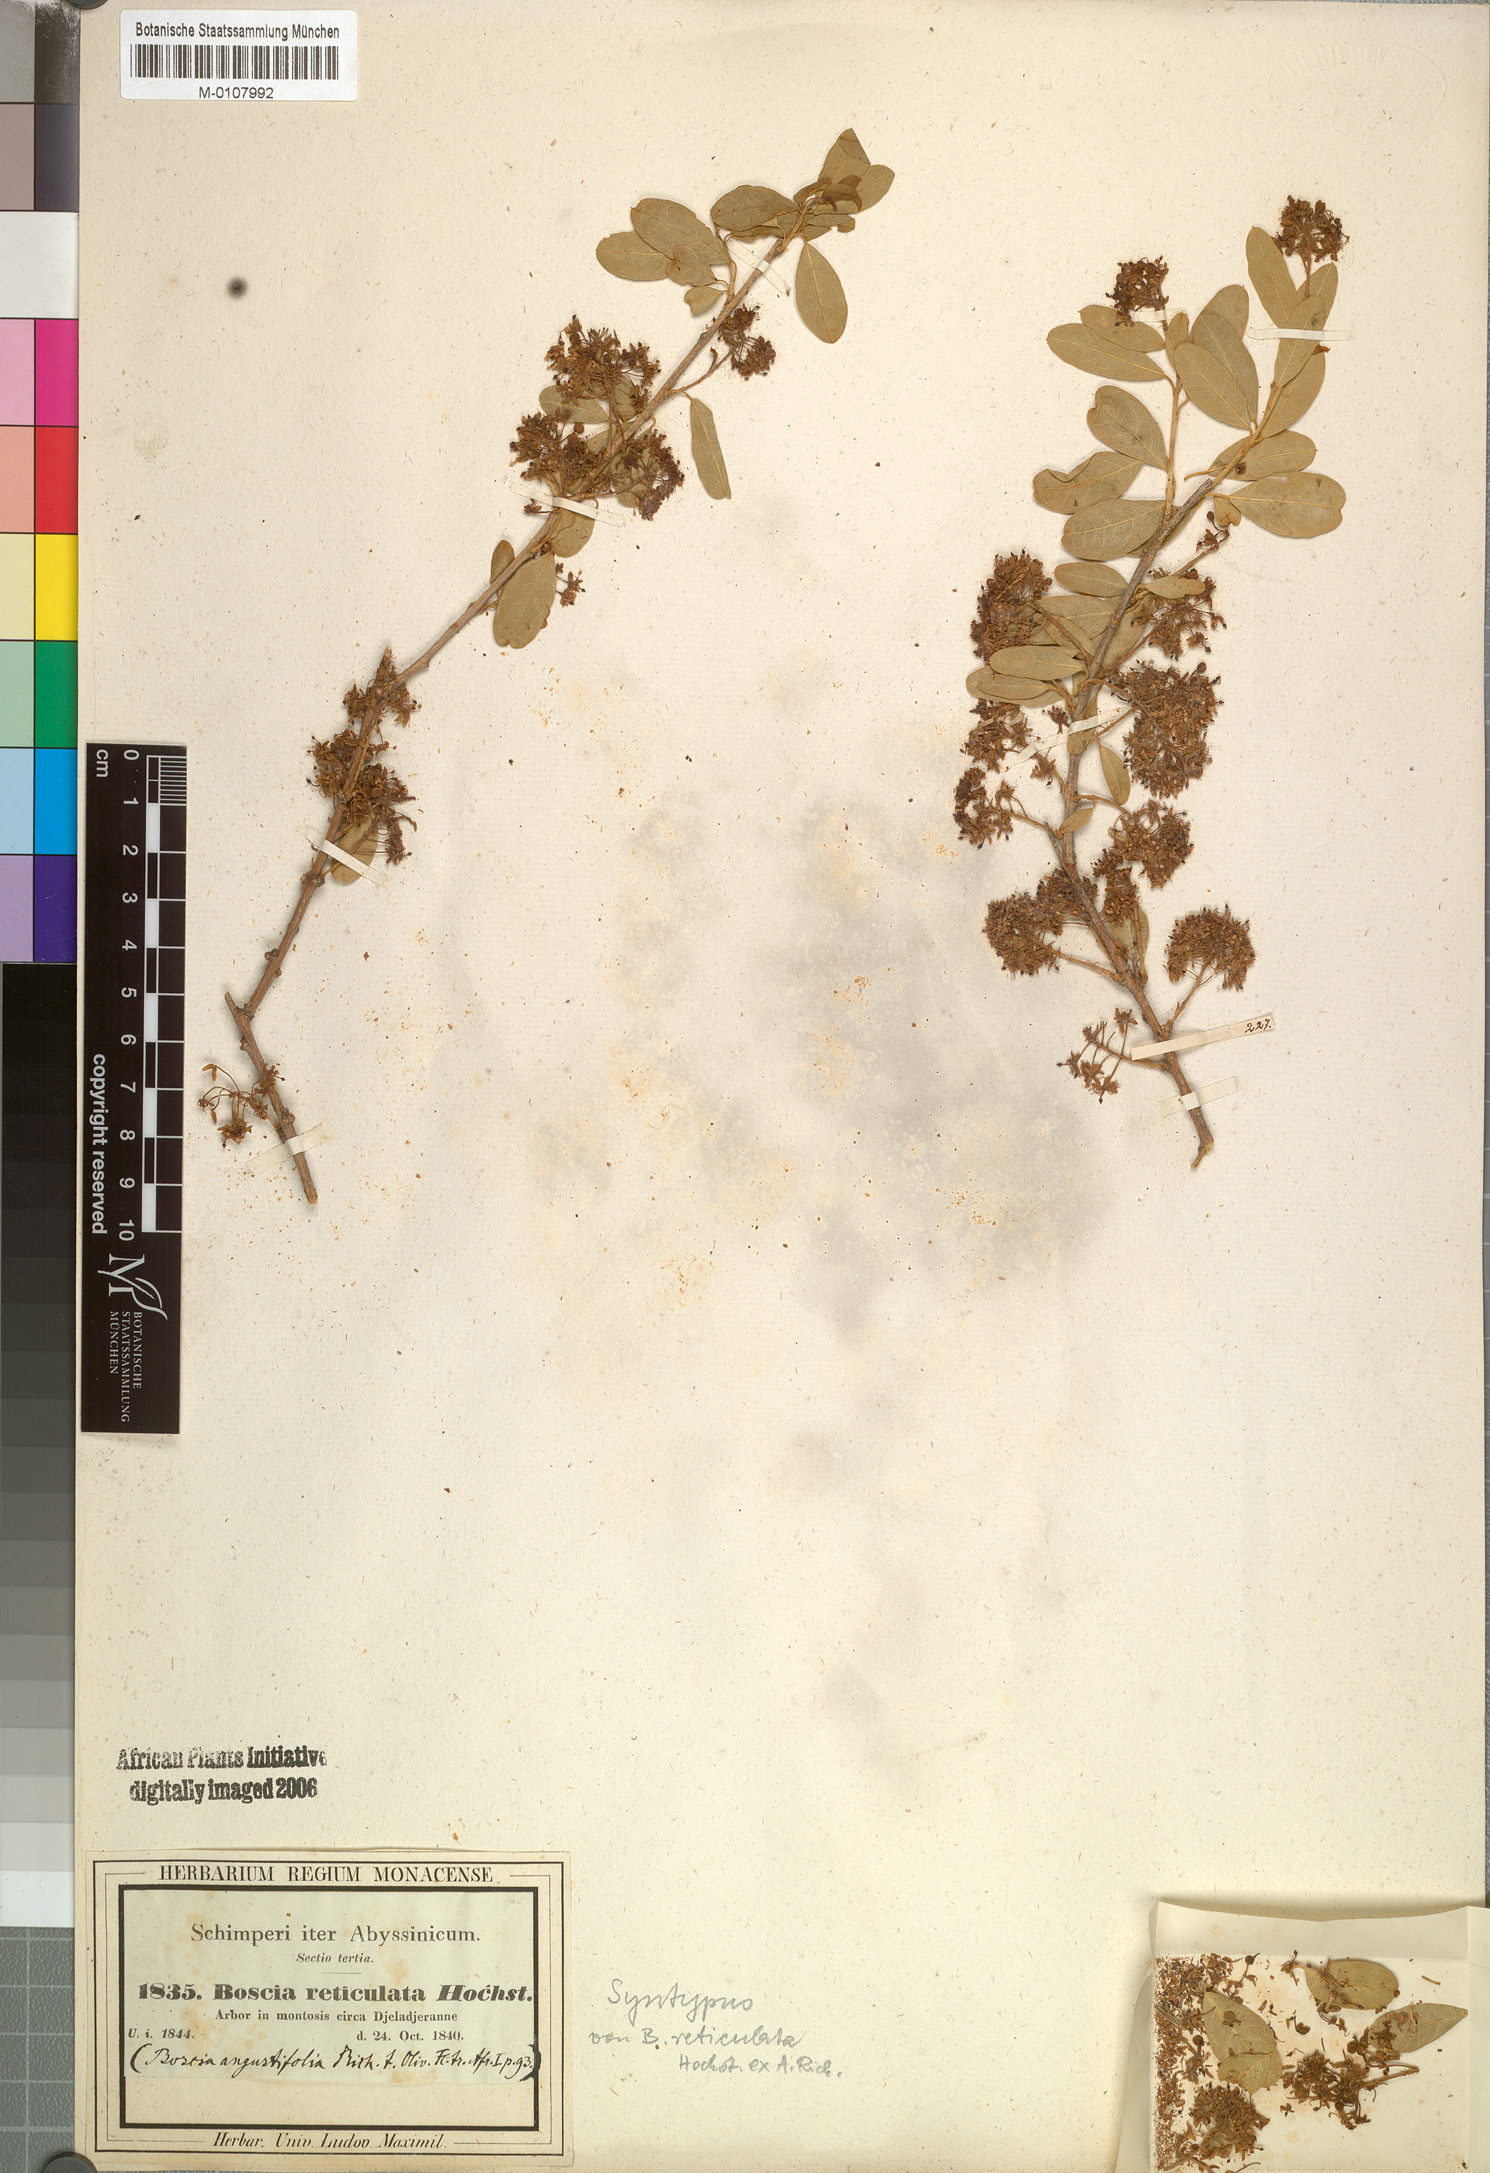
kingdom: Plantae
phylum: Tracheophyta
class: Magnoliopsida
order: Brassicales
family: Capparaceae
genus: Boscia
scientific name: Boscia angustifolia
